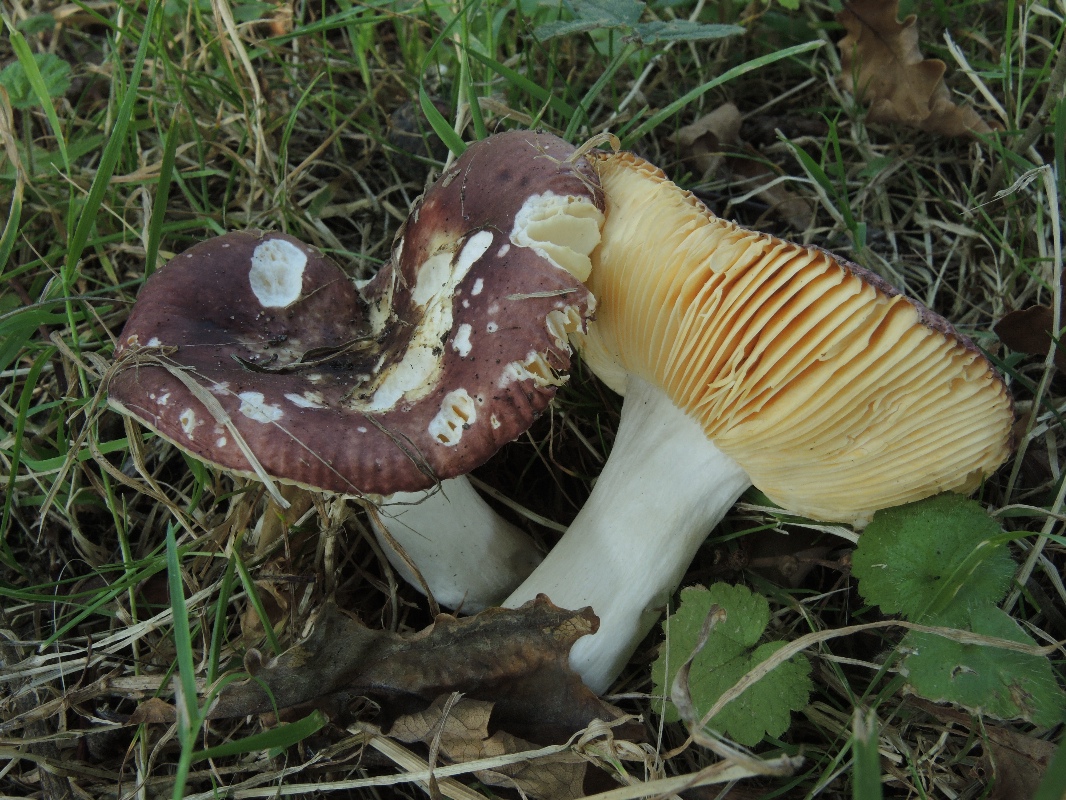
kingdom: Fungi
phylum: Basidiomycota
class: Agaricomycetes
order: Russulales
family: Russulaceae
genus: Russula
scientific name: Russula cuprea
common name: kanel-skørhat
